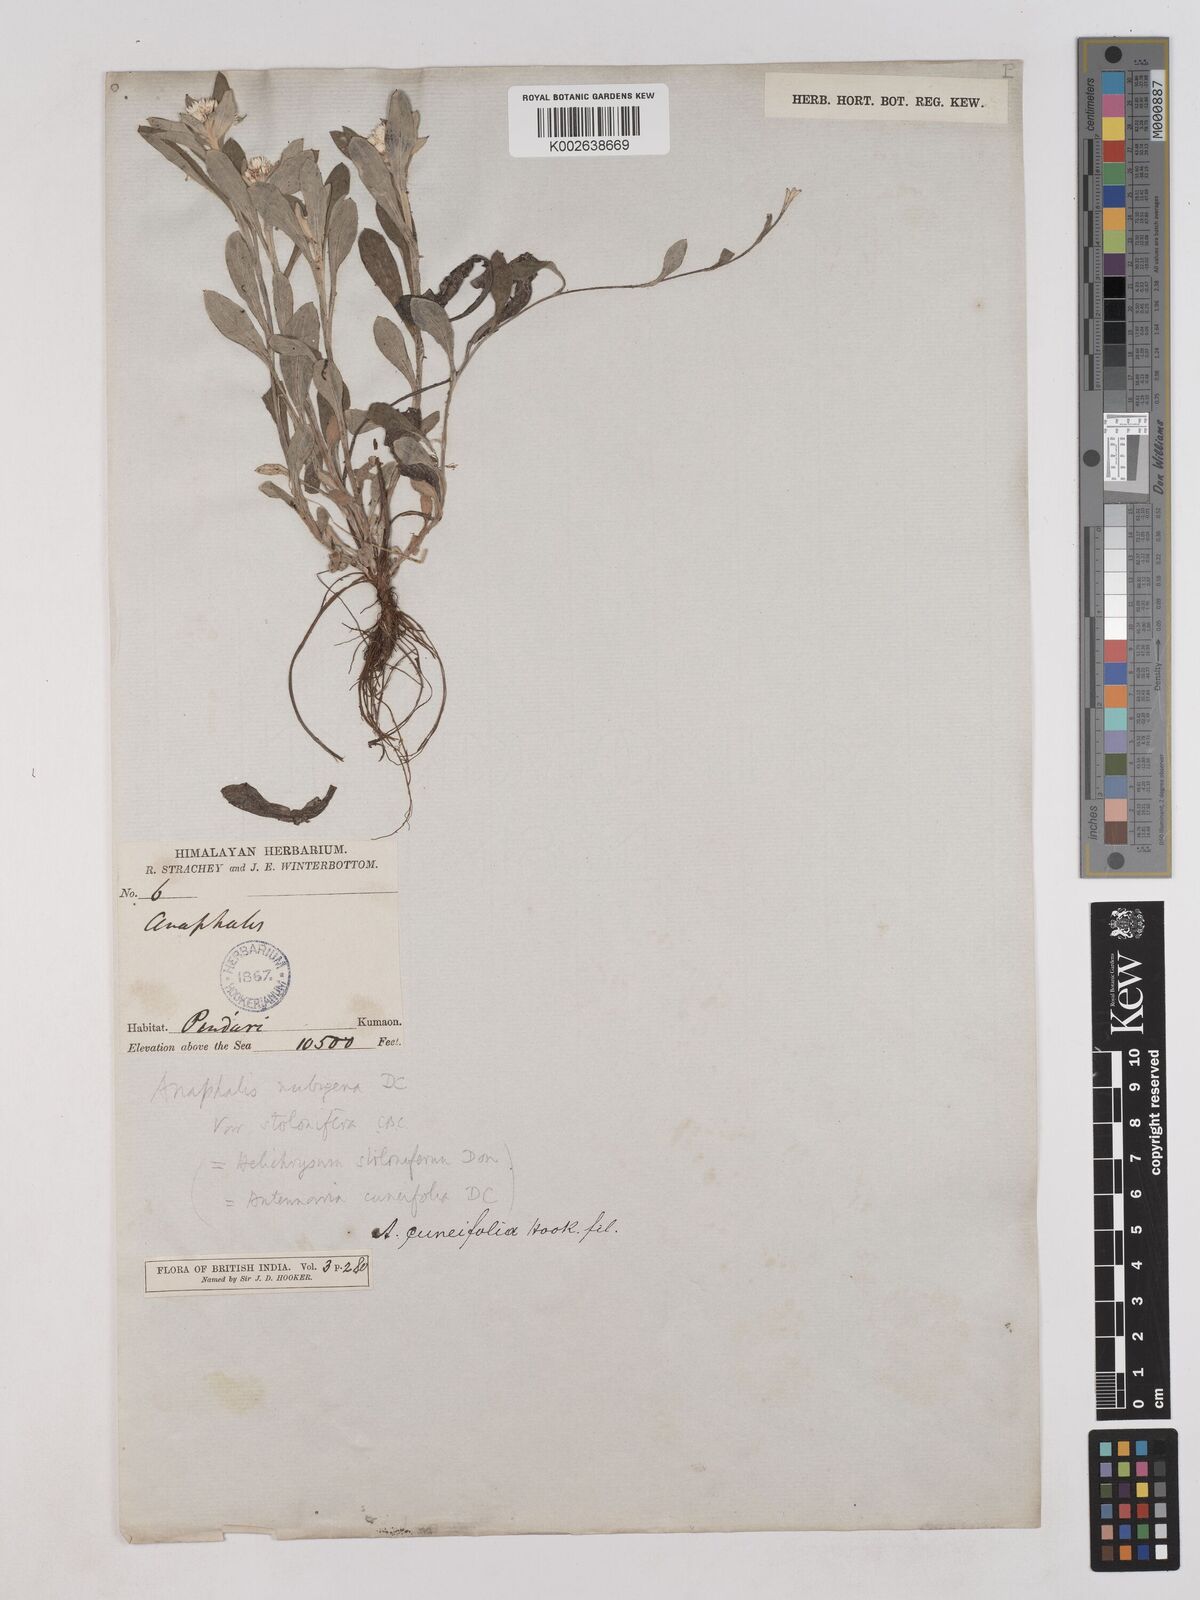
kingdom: Plantae
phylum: Tracheophyta
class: Magnoliopsida
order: Asterales
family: Asteraceae
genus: Anaphalioides
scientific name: Anaphalioides trinervis
